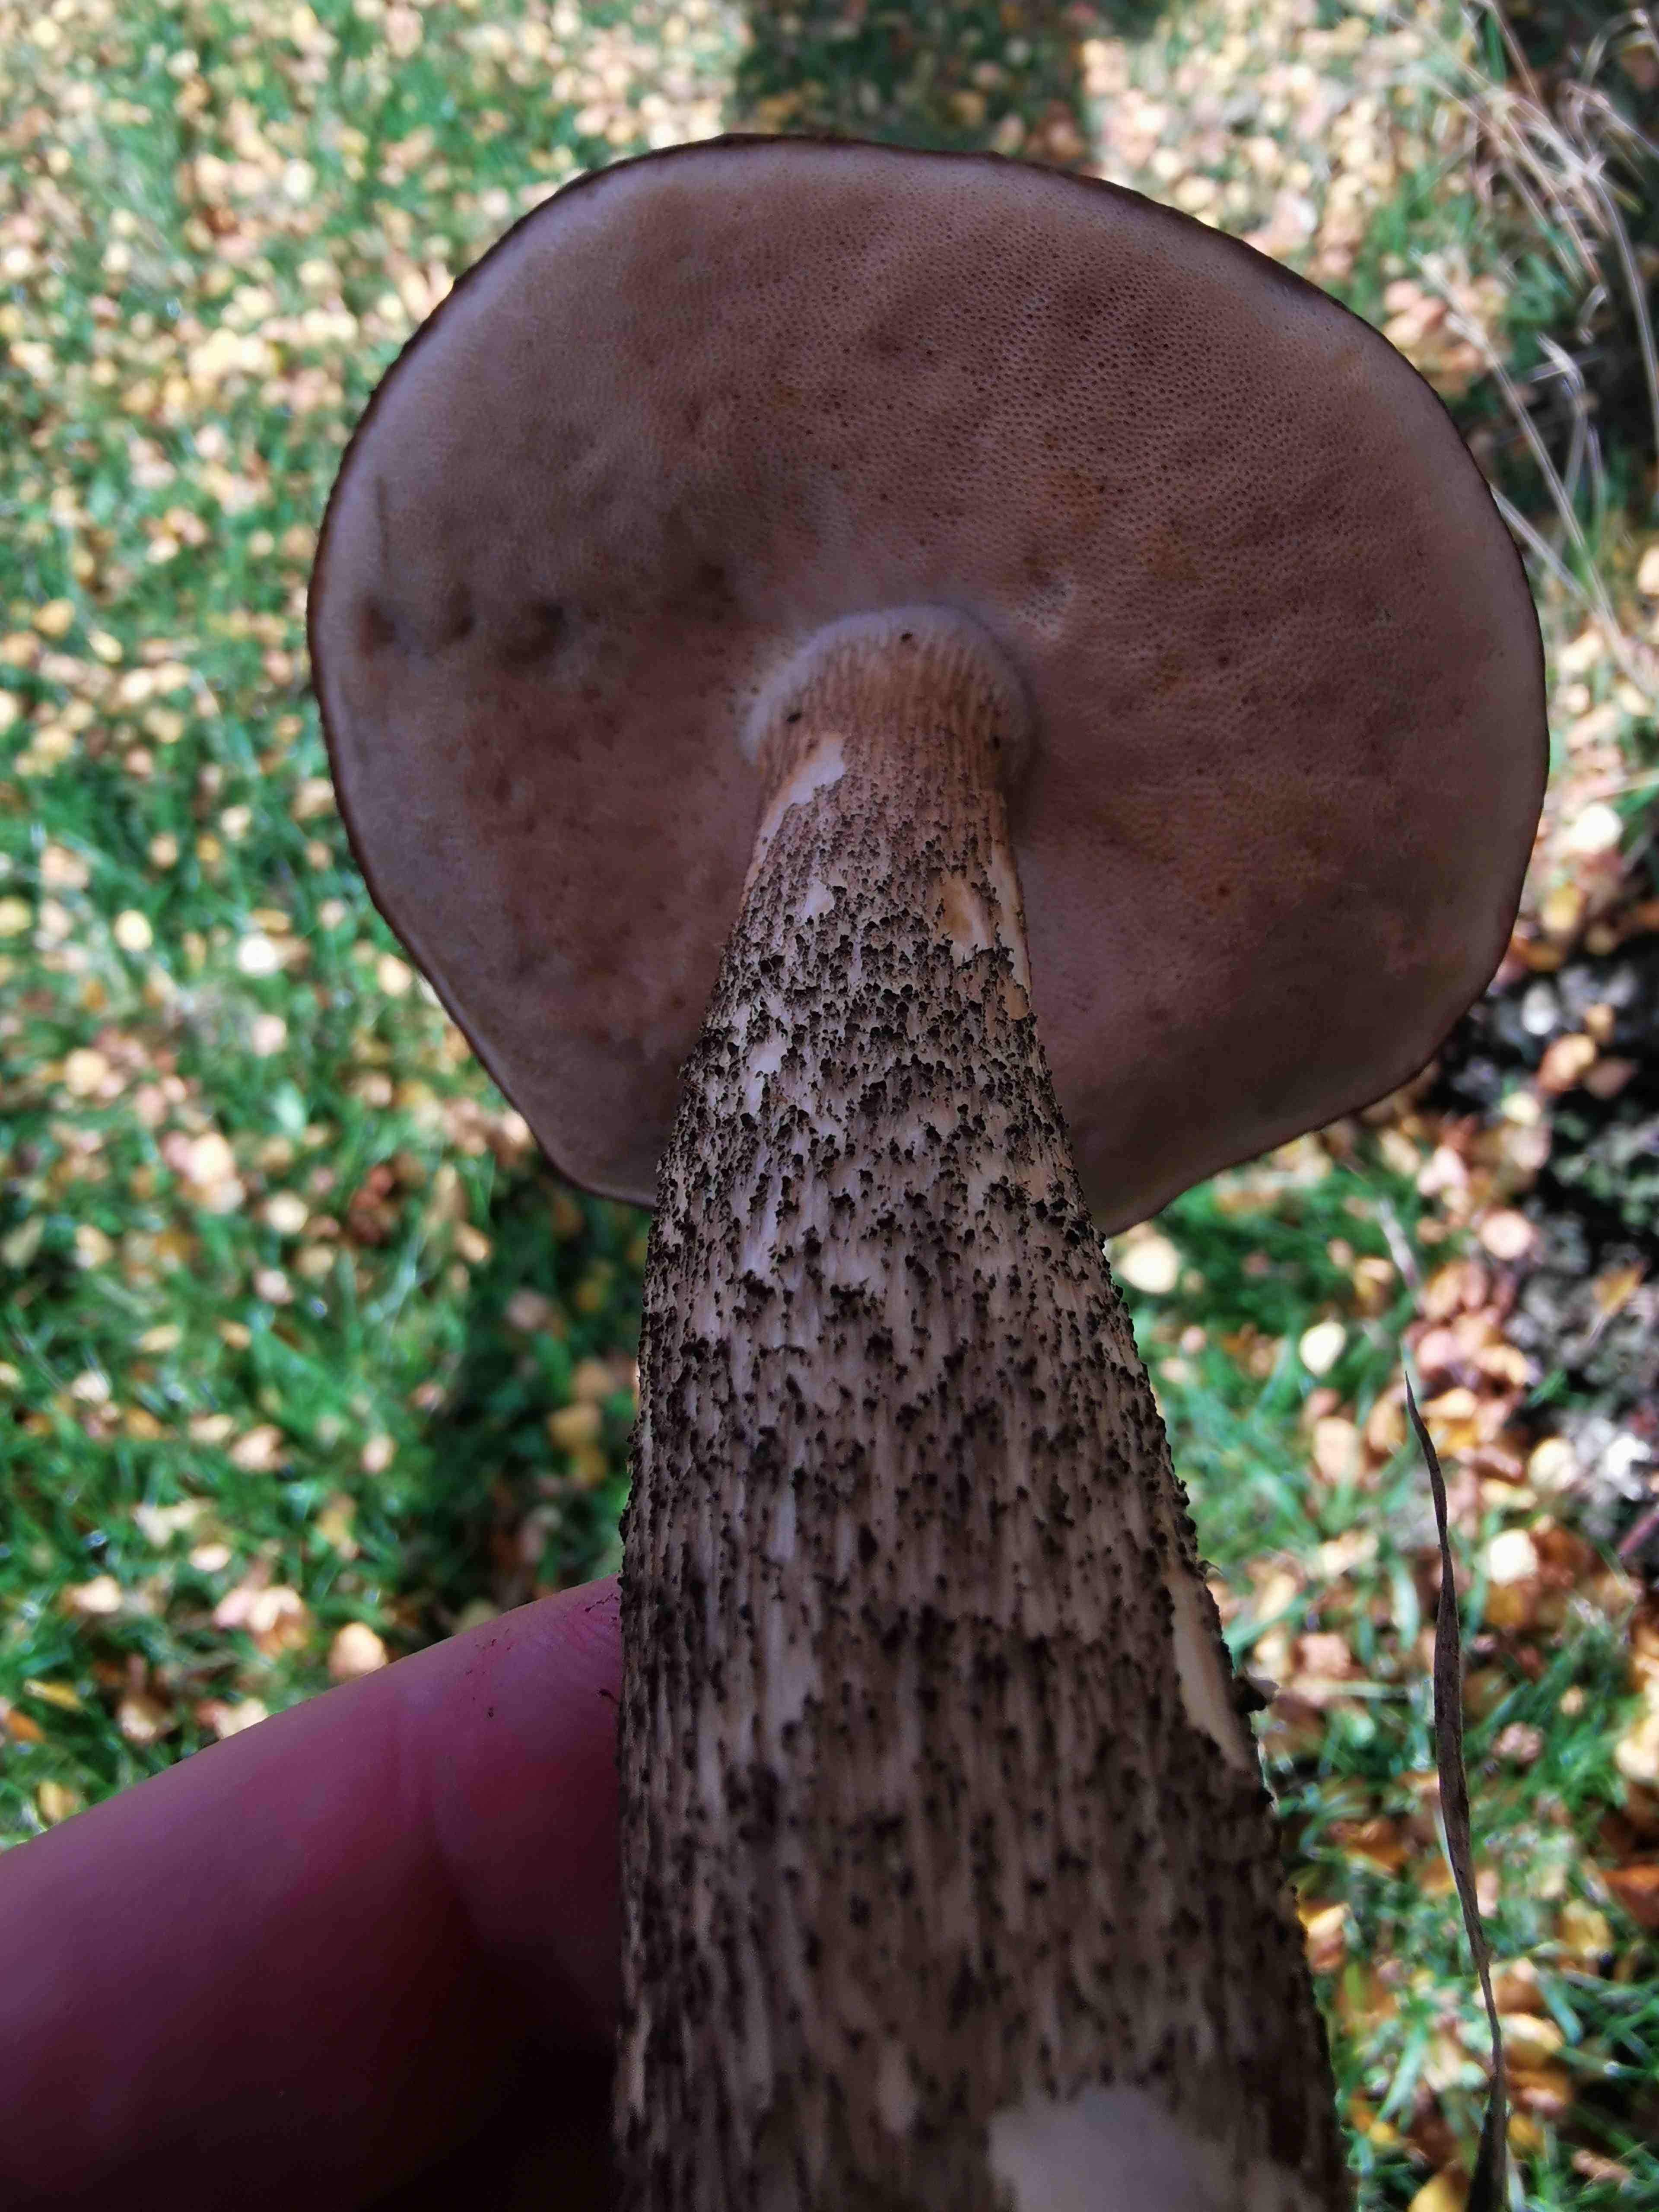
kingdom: Fungi
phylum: Basidiomycota
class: Agaricomycetes
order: Boletales
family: Boletaceae
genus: Leccinum
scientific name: Leccinum scabrum
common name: brun skælrørhat
